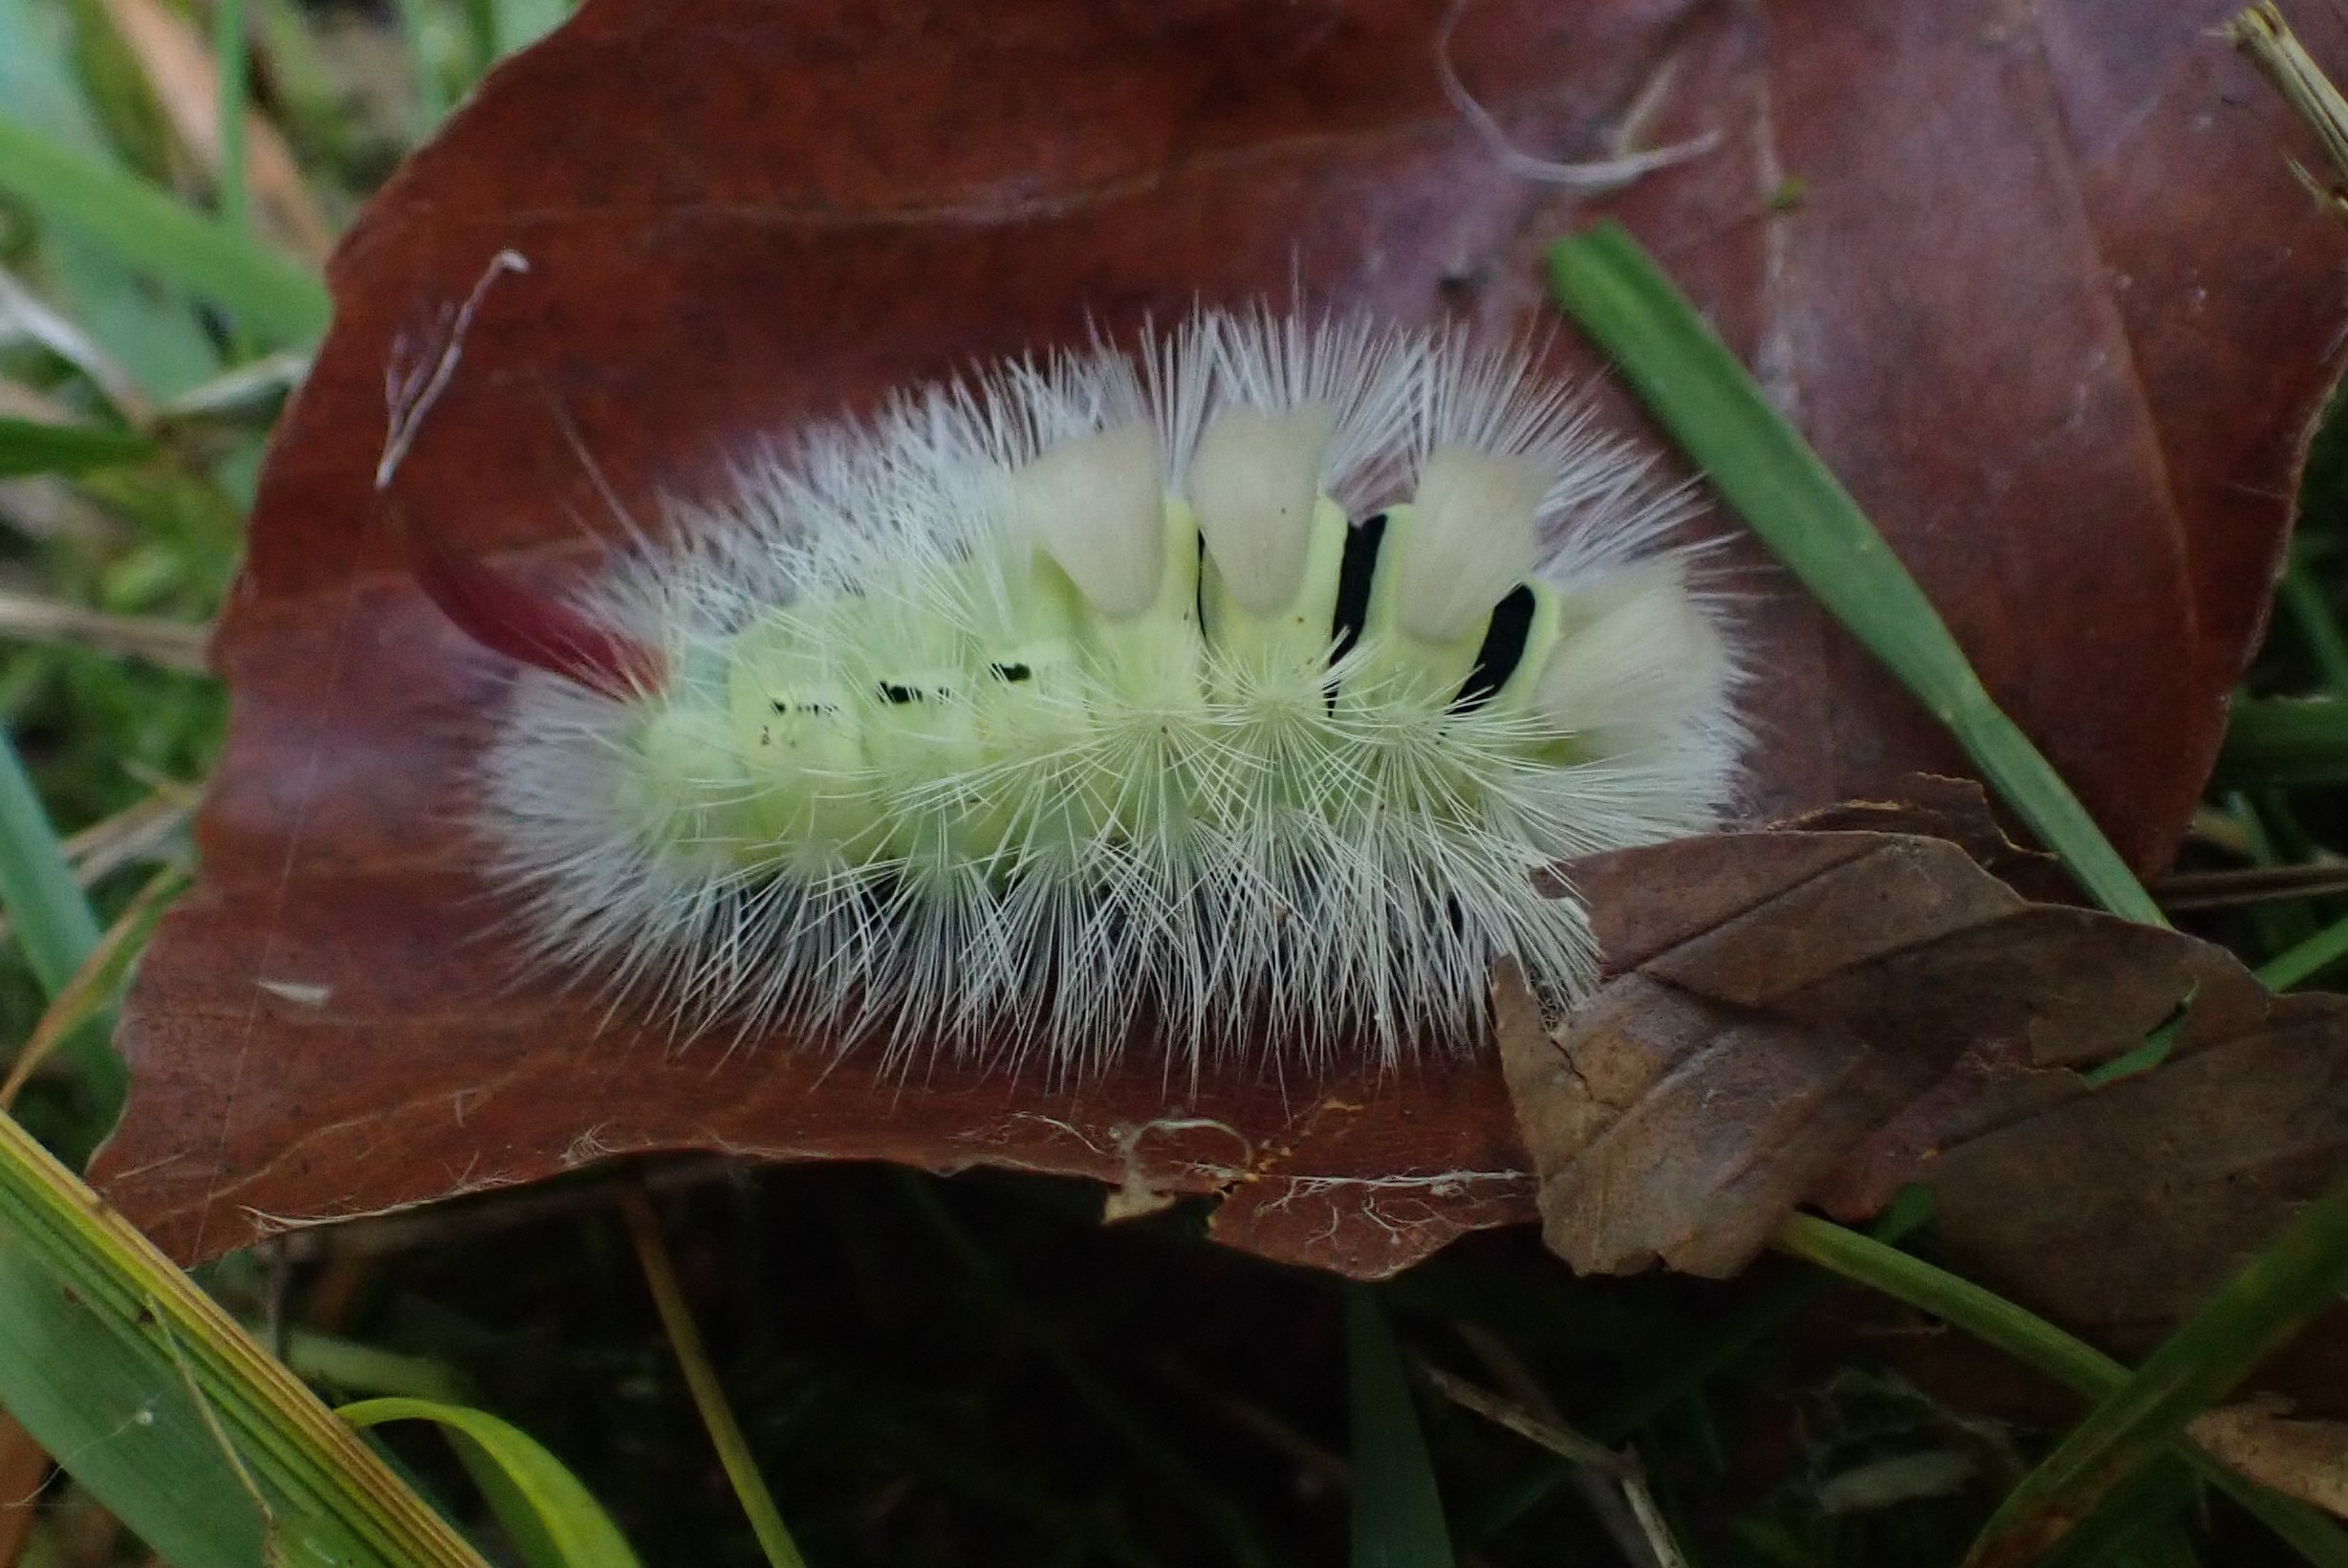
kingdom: Animalia
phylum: Arthropoda
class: Insecta
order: Lepidoptera
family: Erebidae
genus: Calliteara
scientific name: Calliteara pudibunda
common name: Bøgenonne
